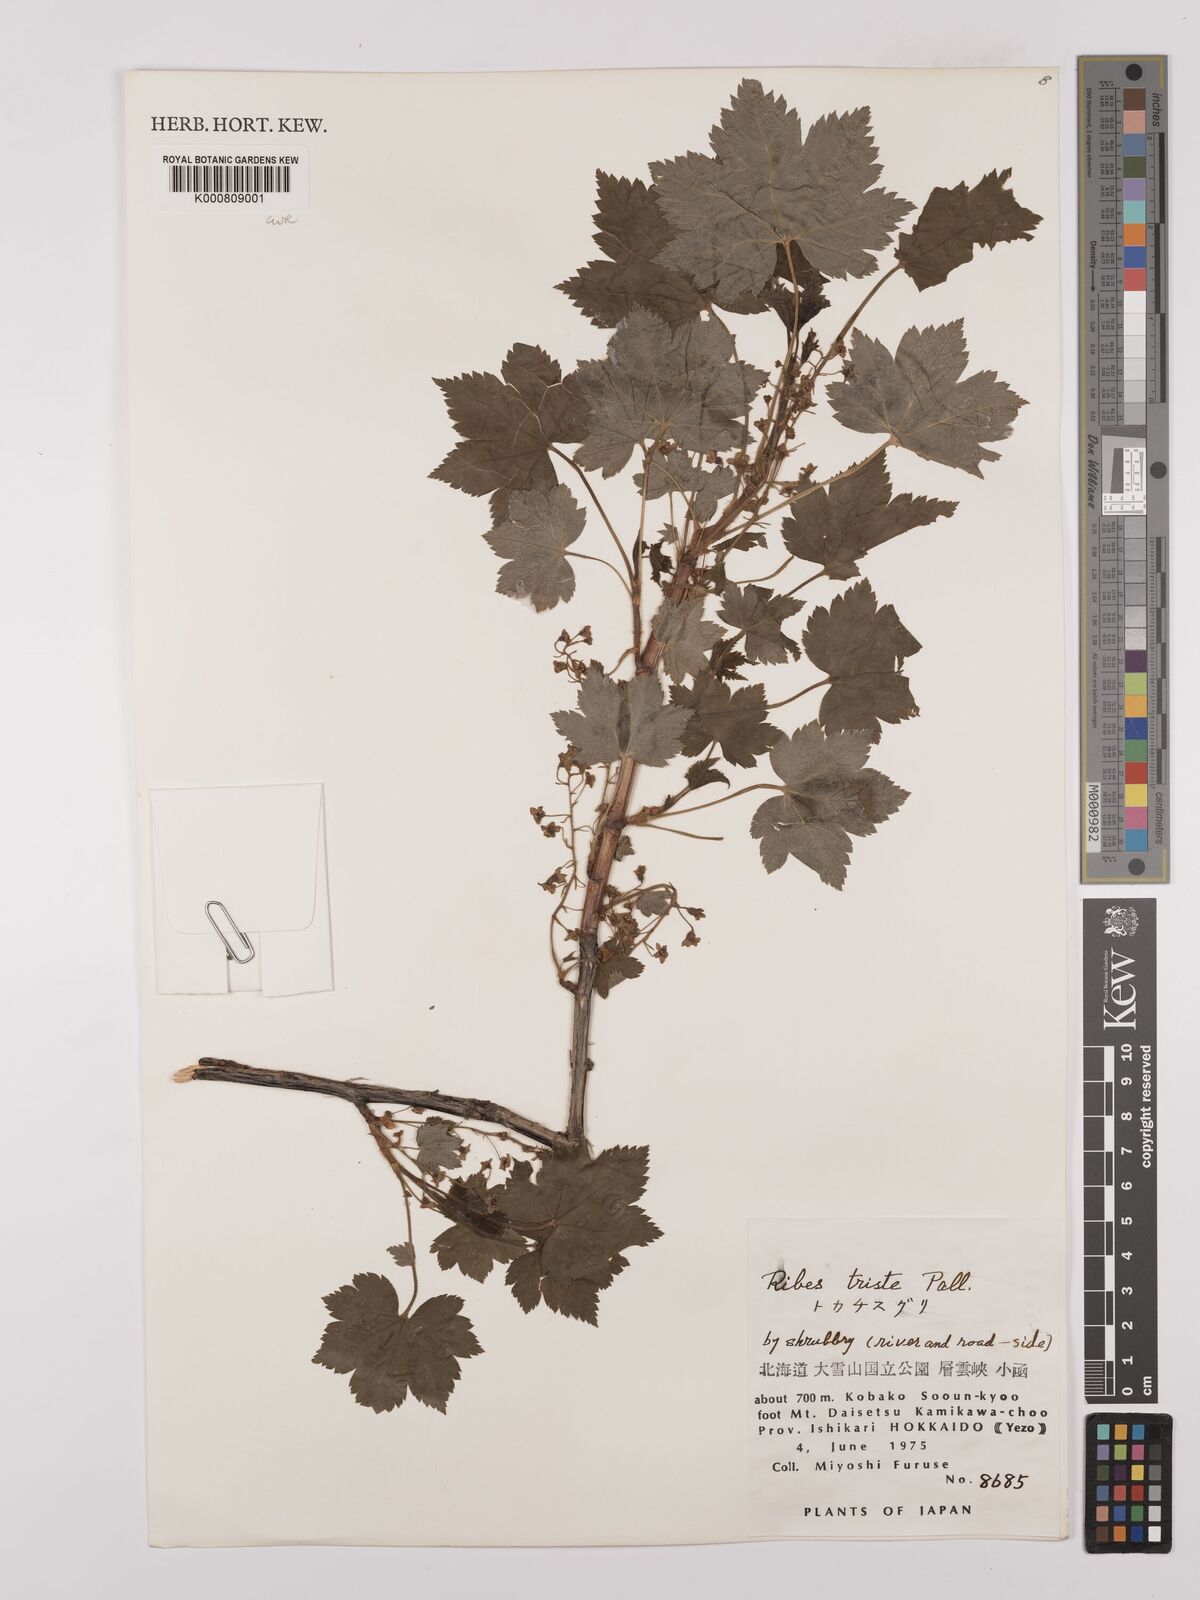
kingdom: Plantae
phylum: Tracheophyta
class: Magnoliopsida
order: Saxifragales
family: Grossulariaceae
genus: Ribes
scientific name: Ribes triste
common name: Swamp red currant
